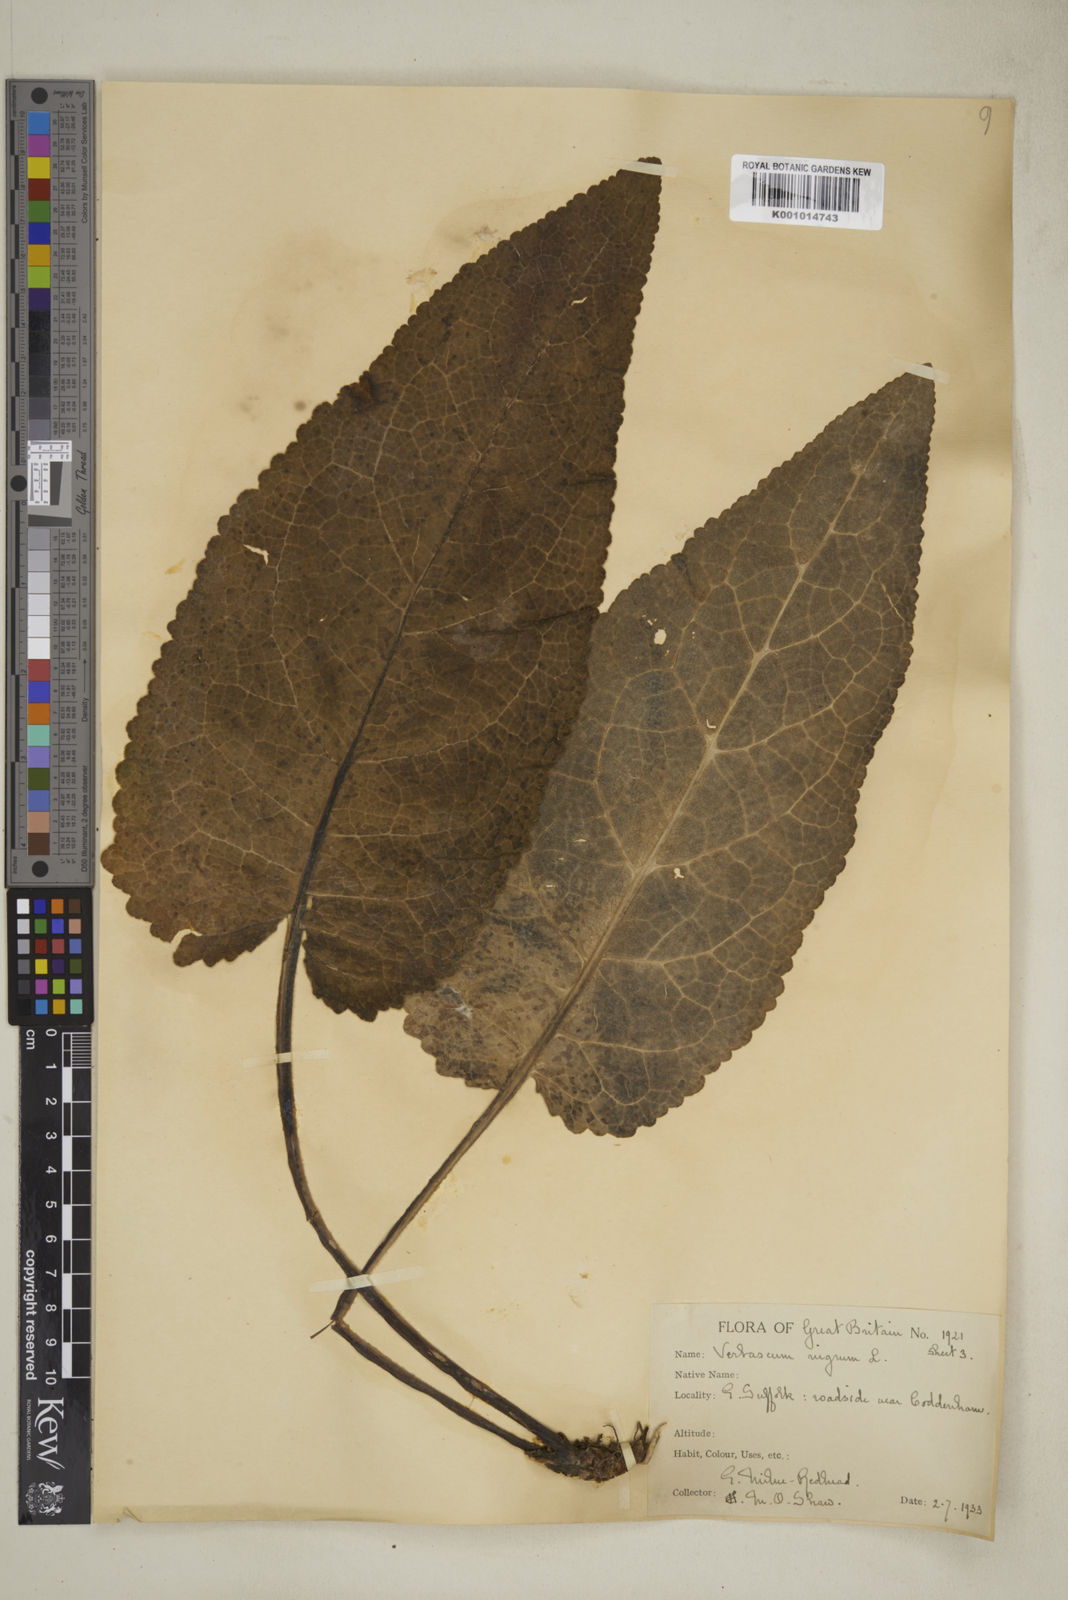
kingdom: Plantae
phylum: Tracheophyta
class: Liliopsida
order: Poales
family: Poaceae
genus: Paspalum
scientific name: Paspalum gardnerianum
